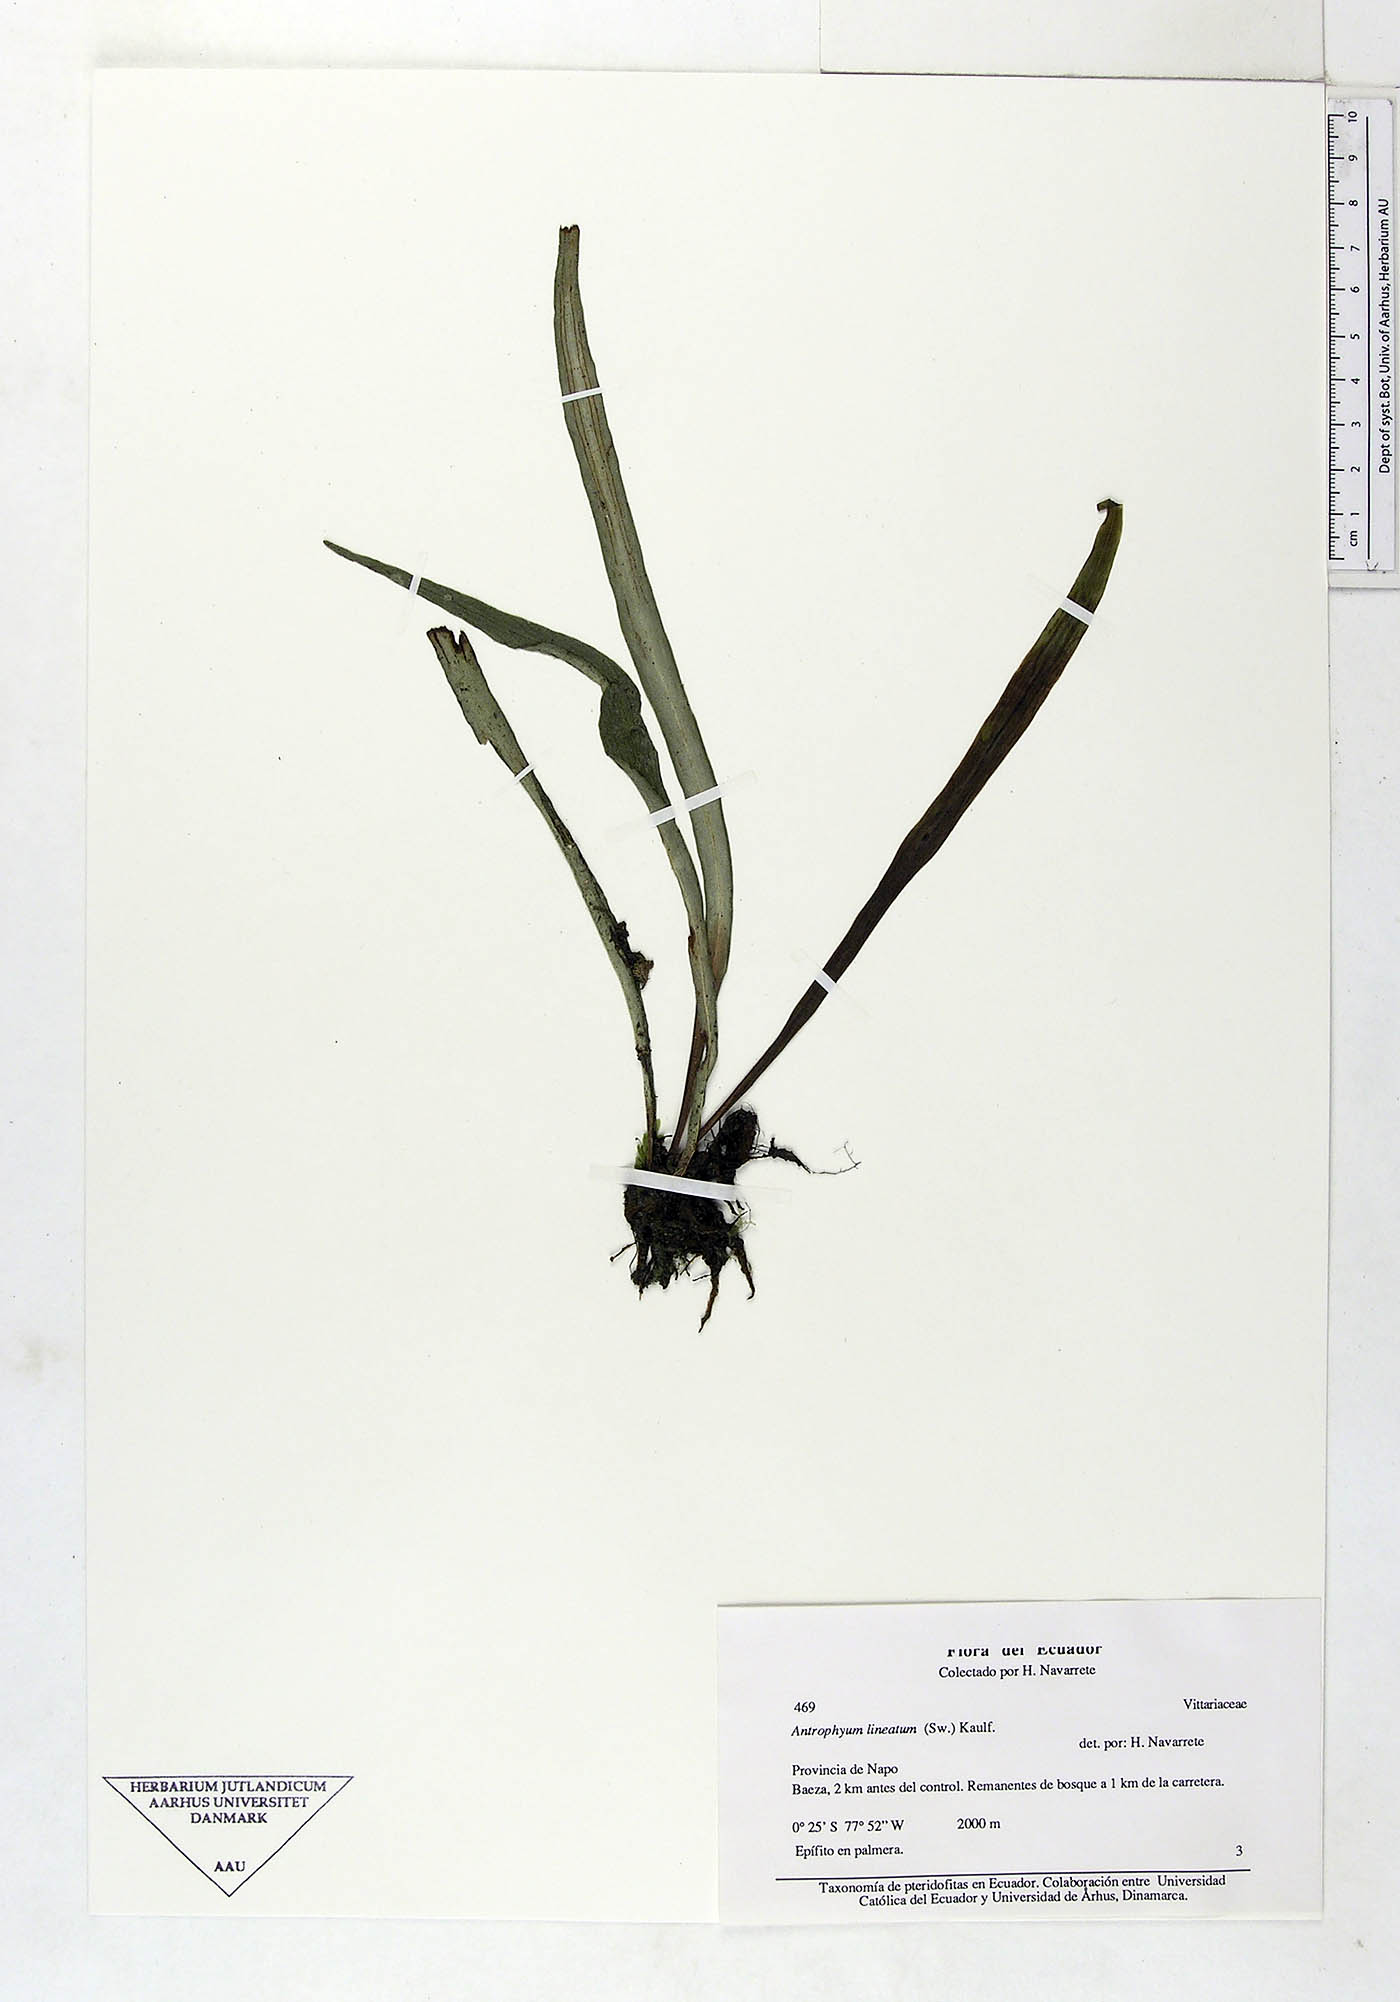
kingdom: Plantae
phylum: Tracheophyta
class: Polypodiopsida
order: Polypodiales
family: Pteridaceae
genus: Polytaenium
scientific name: Polytaenium lineatum
